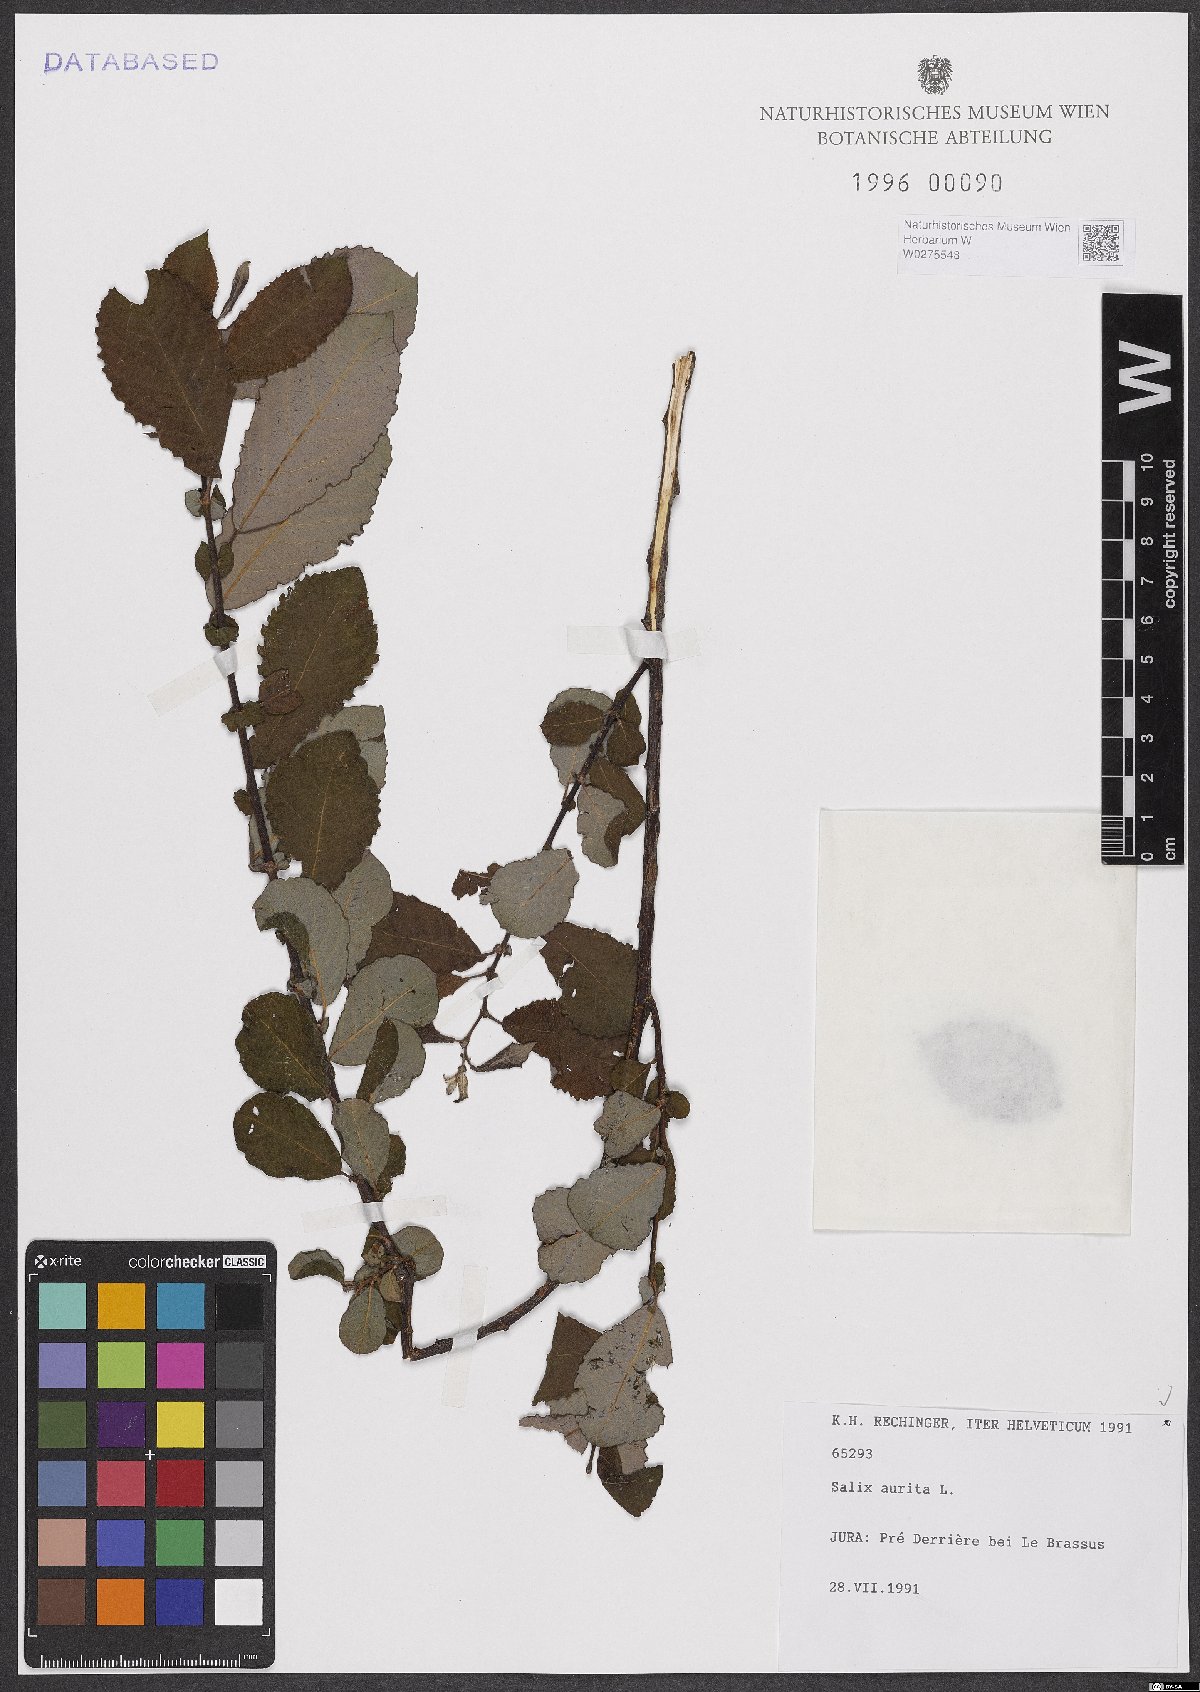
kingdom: Plantae
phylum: Tracheophyta
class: Magnoliopsida
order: Malpighiales
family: Salicaceae
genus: Salix
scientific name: Salix aurita
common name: Eared willow
